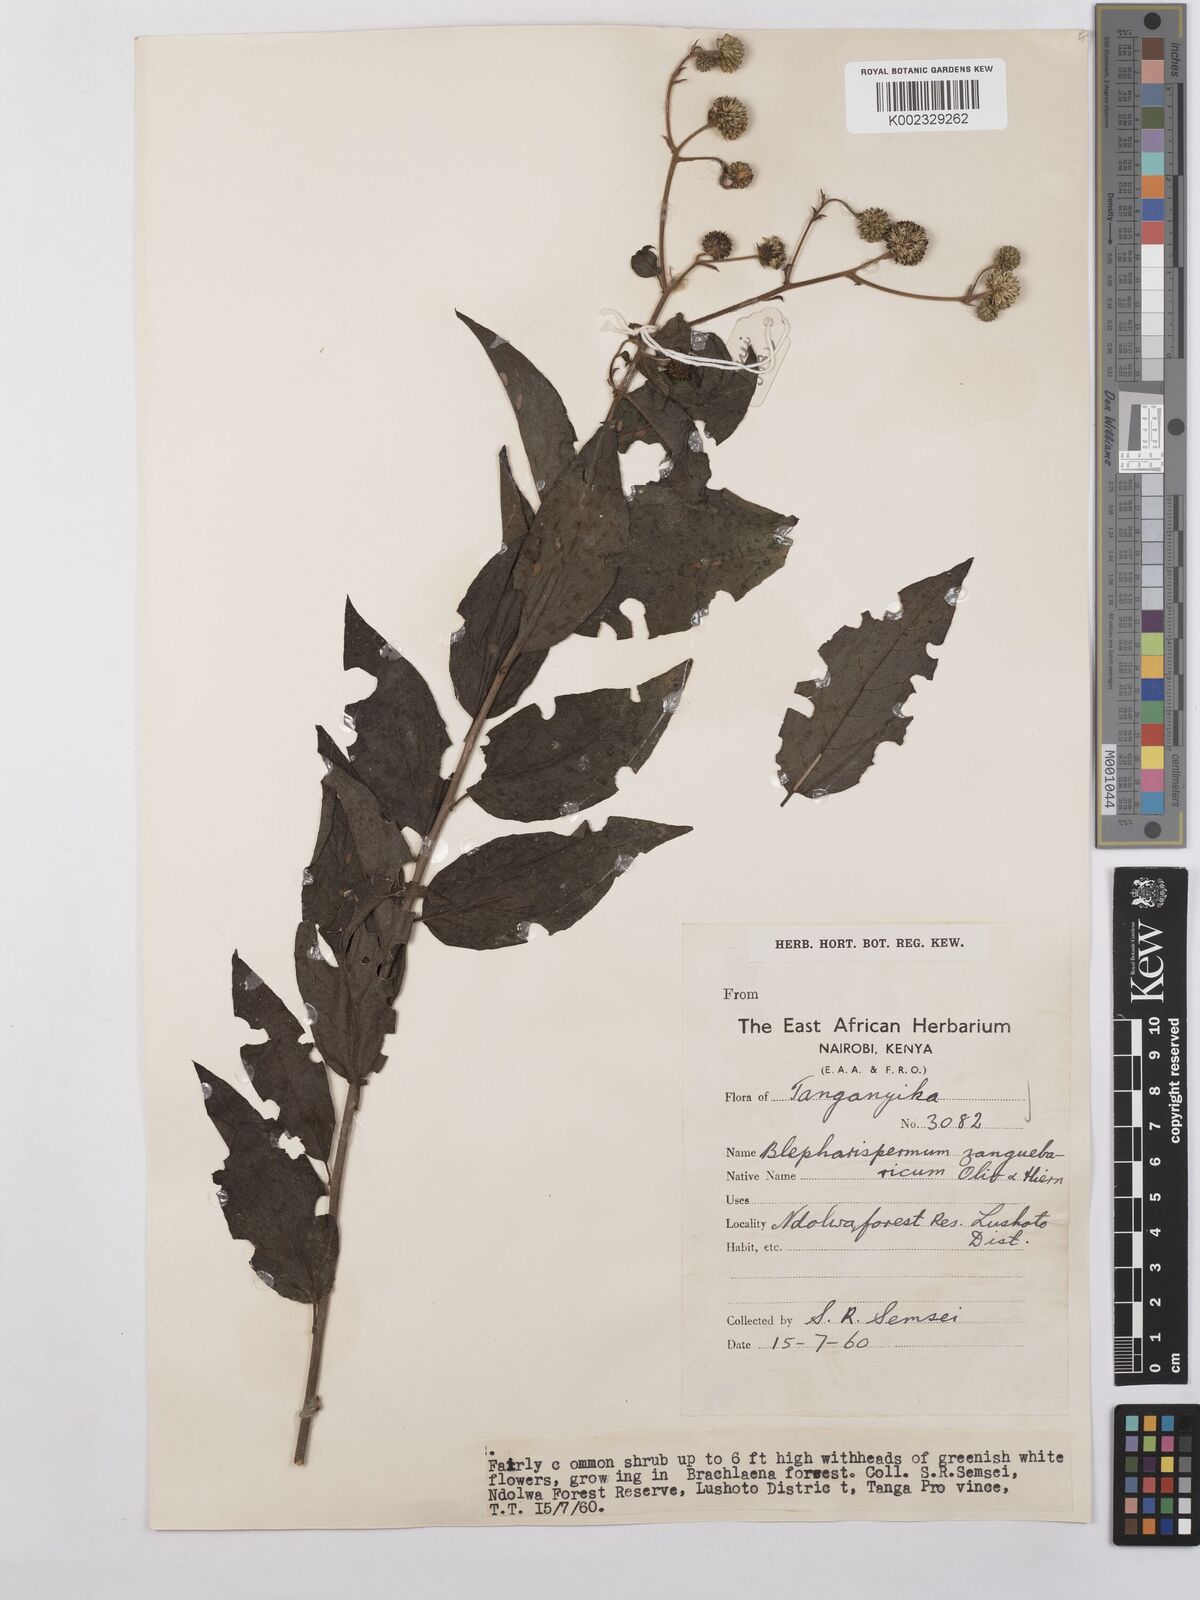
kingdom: Plantae
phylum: Tracheophyta
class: Magnoliopsida
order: Asterales
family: Asteraceae
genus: Blepharispermum
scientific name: Blepharispermum zanguebaricum
